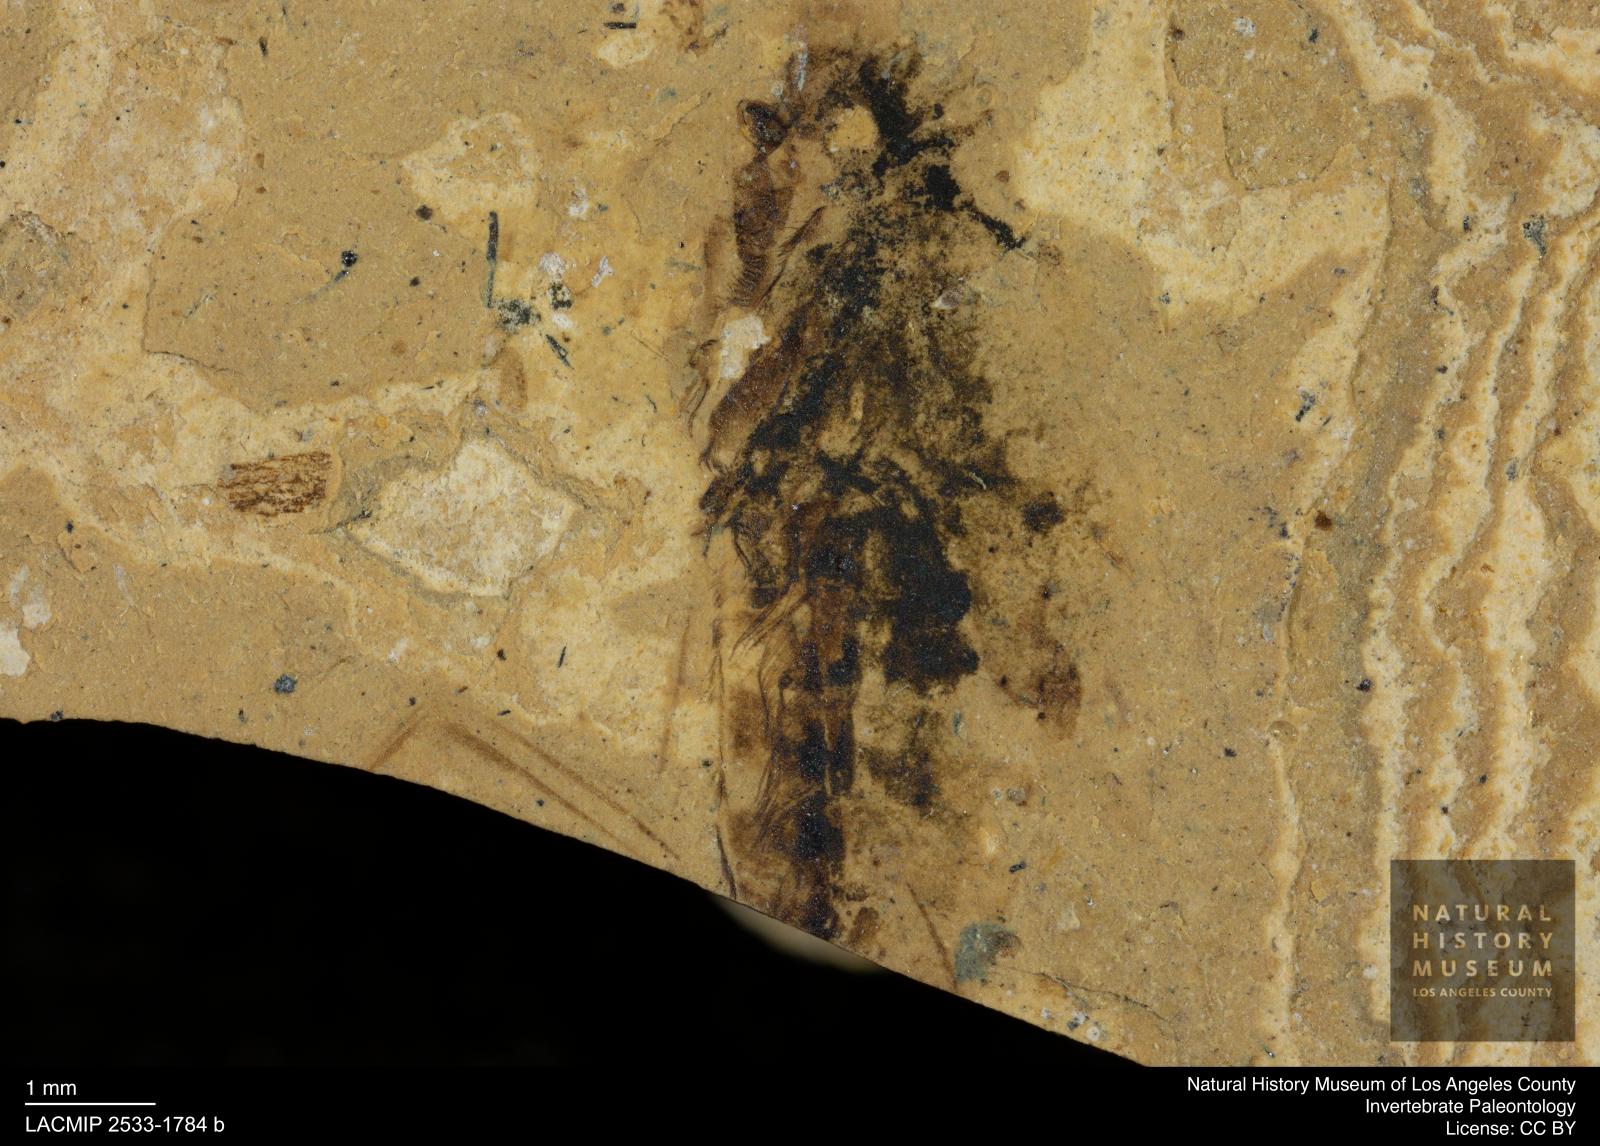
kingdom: Animalia
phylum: Arthropoda
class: Insecta
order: Hemiptera
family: Notonectidae
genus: Notonecta
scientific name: Notonecta
